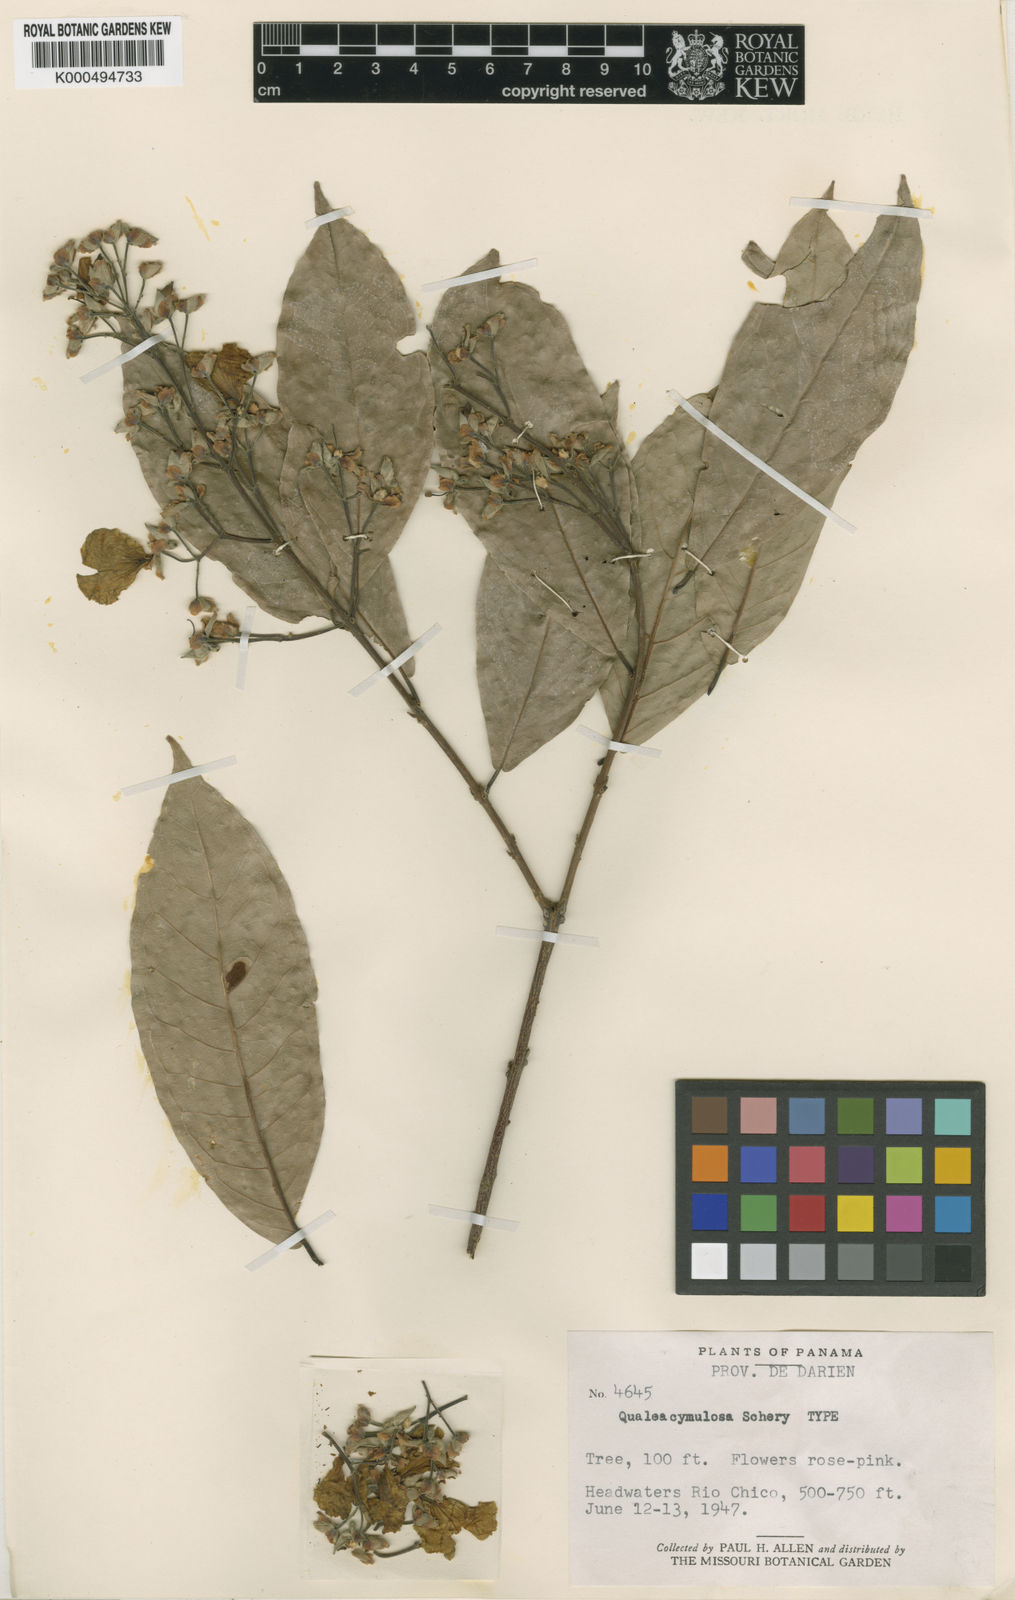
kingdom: Plantae
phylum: Tracheophyta
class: Magnoliopsida
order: Myrtales
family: Vochysiaceae
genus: Qualea
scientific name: Qualea cymulosa
